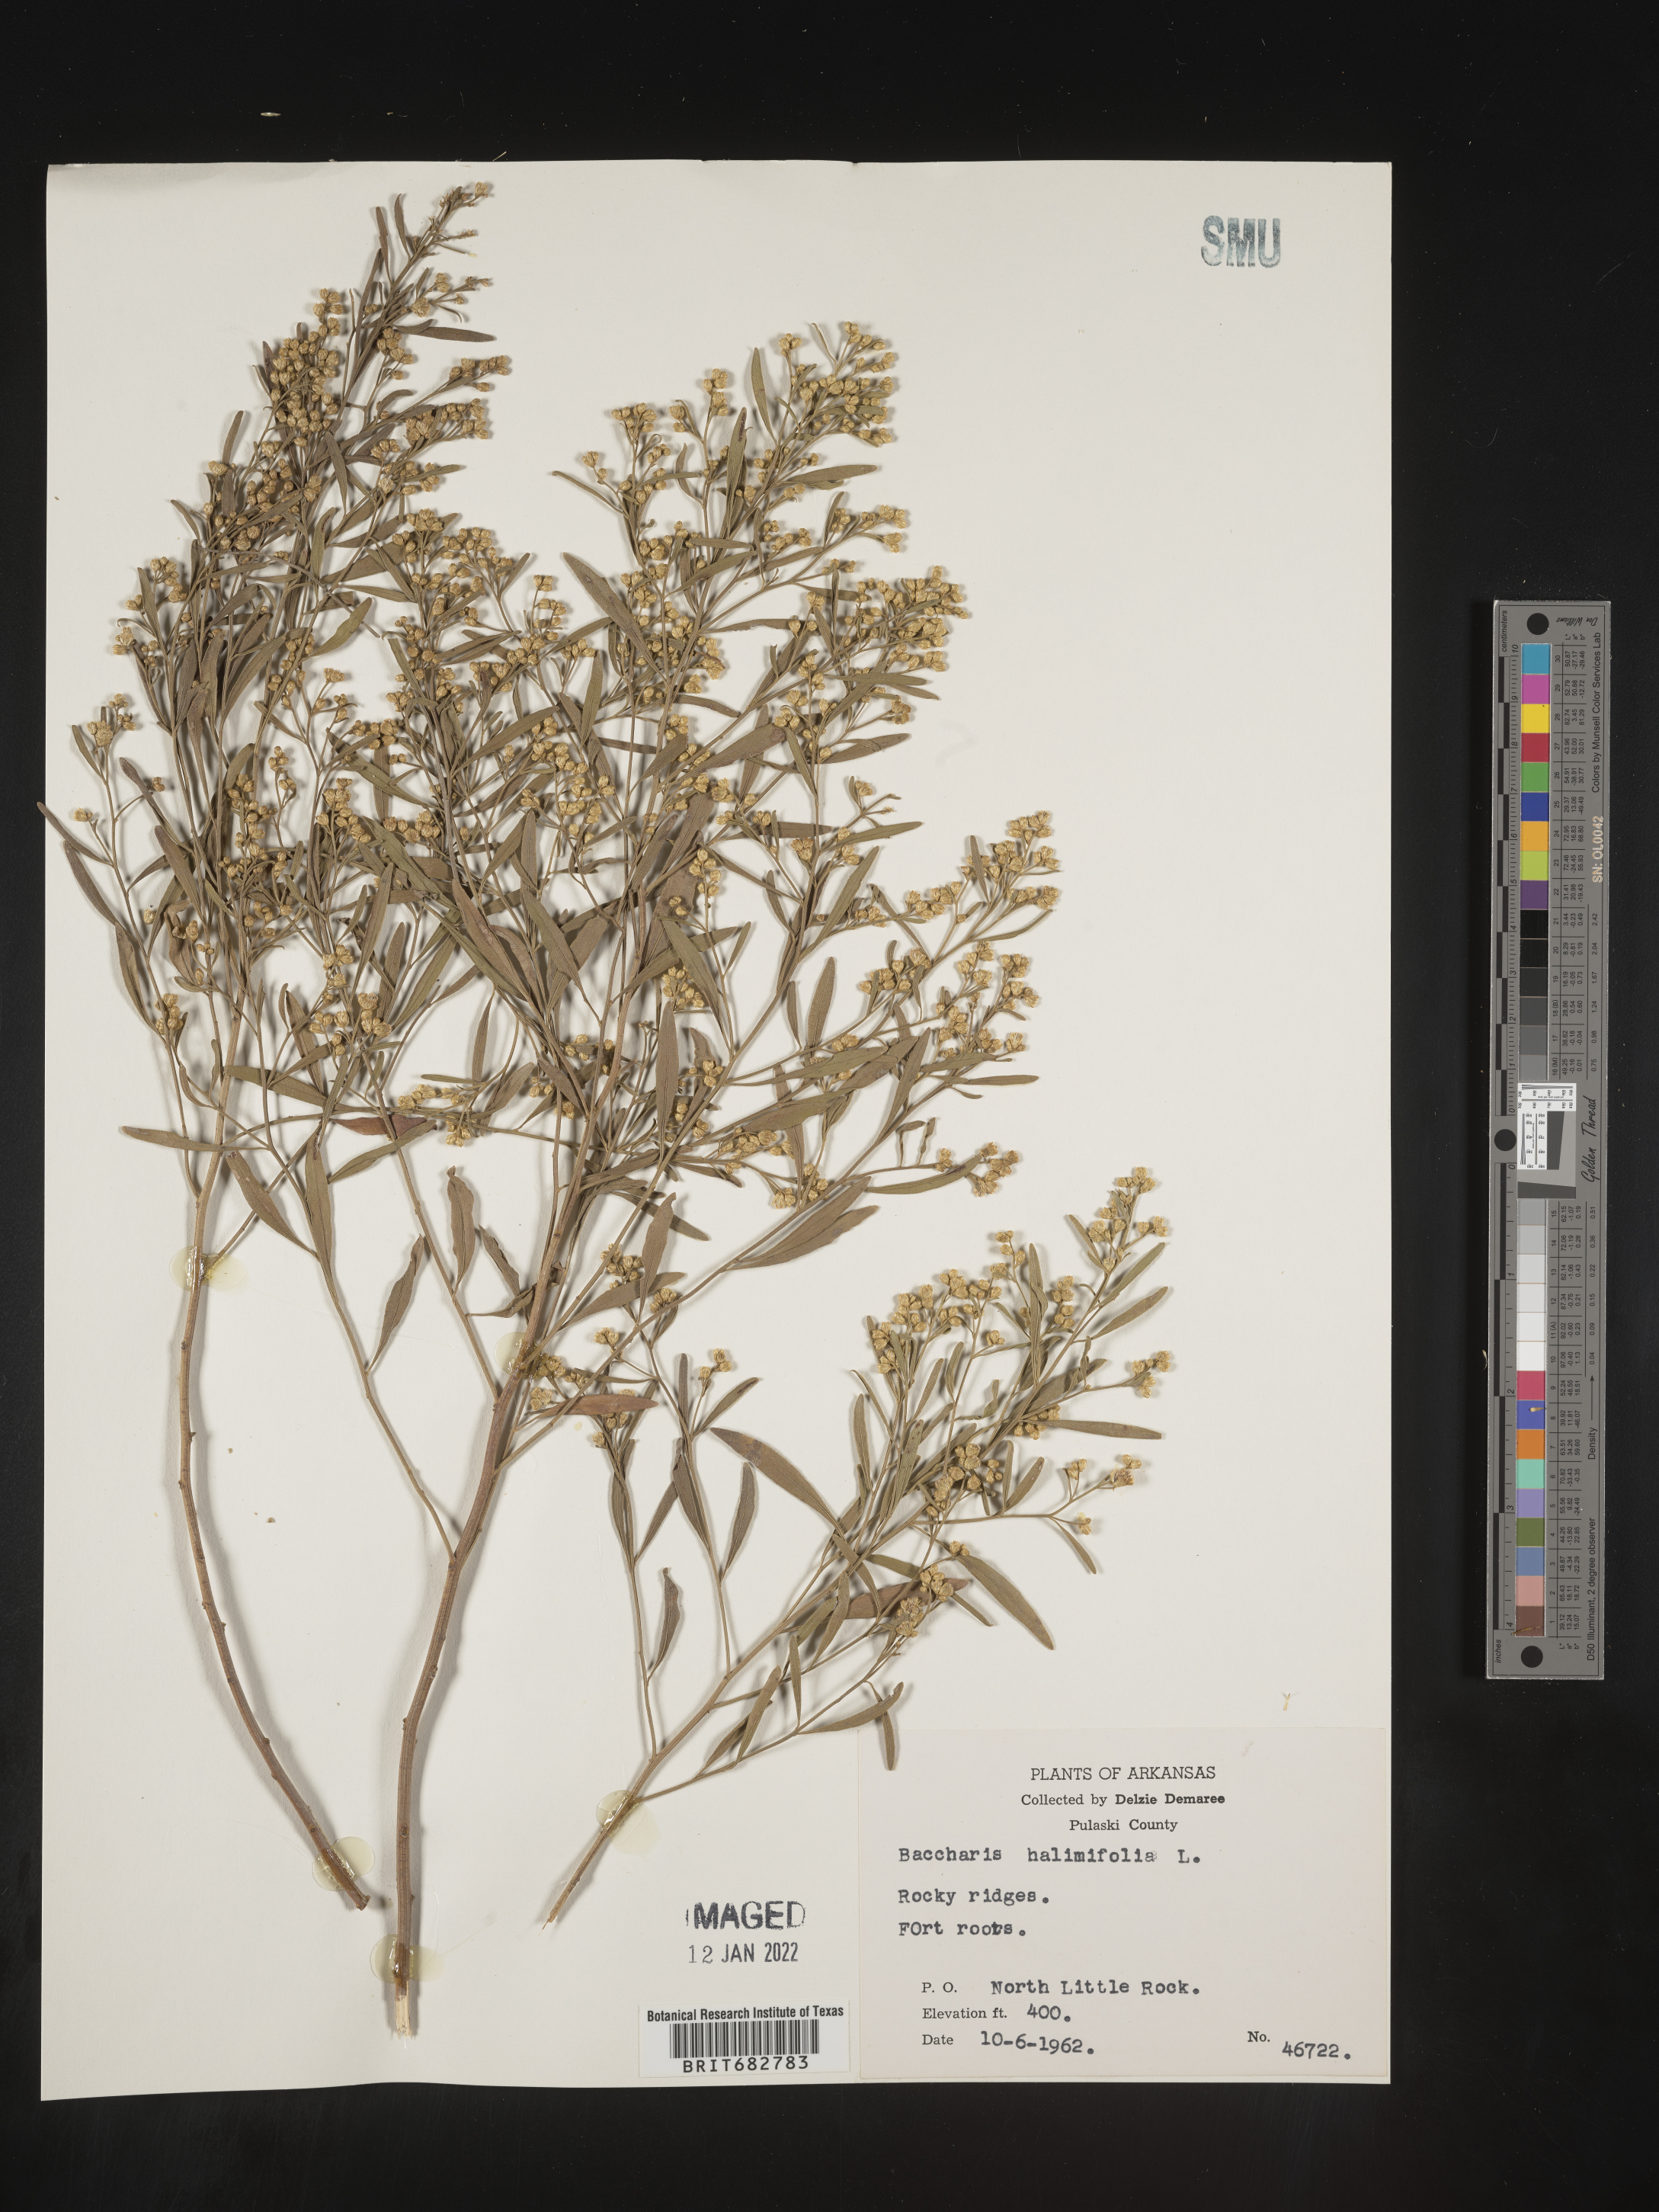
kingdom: Plantae
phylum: Tracheophyta
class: Magnoliopsida
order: Asterales
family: Asteraceae
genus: Nidorella
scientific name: Nidorella ivifolia
